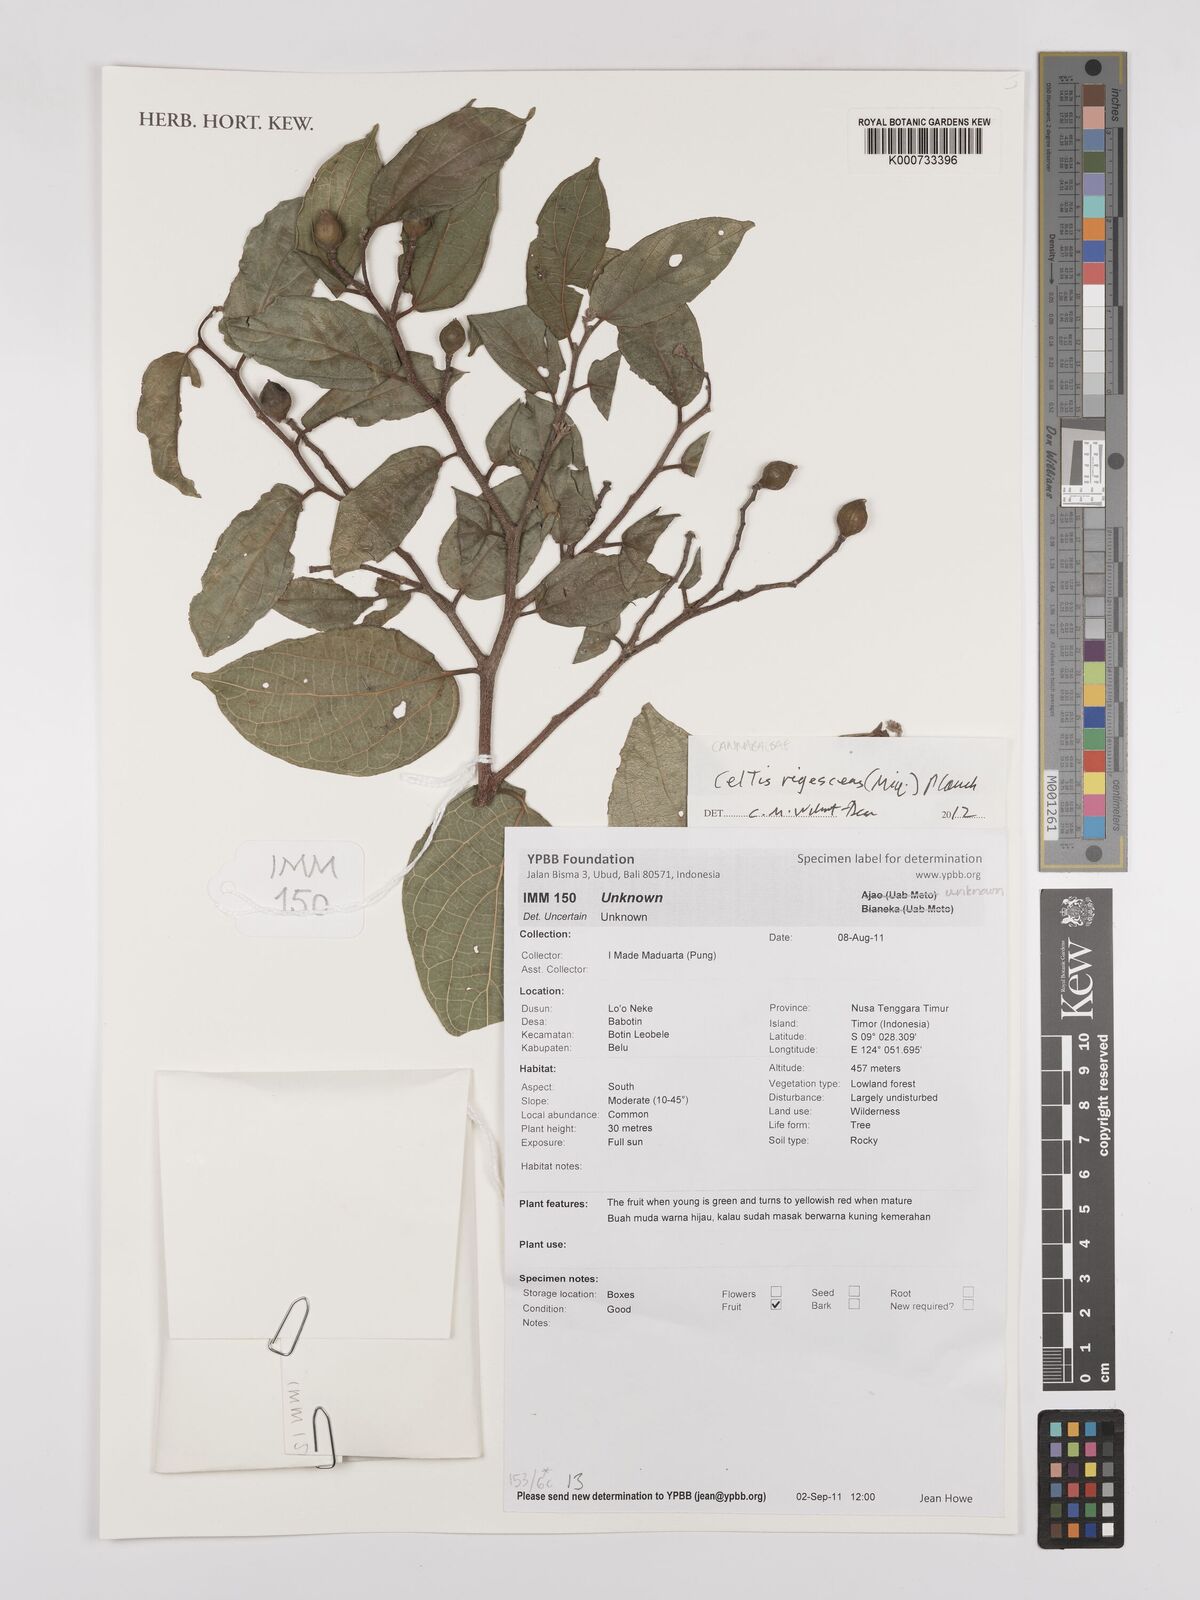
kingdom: Plantae
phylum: Tracheophyta
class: Magnoliopsida
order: Rosales
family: Cannabaceae
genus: Celtis
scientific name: Celtis rigescens
